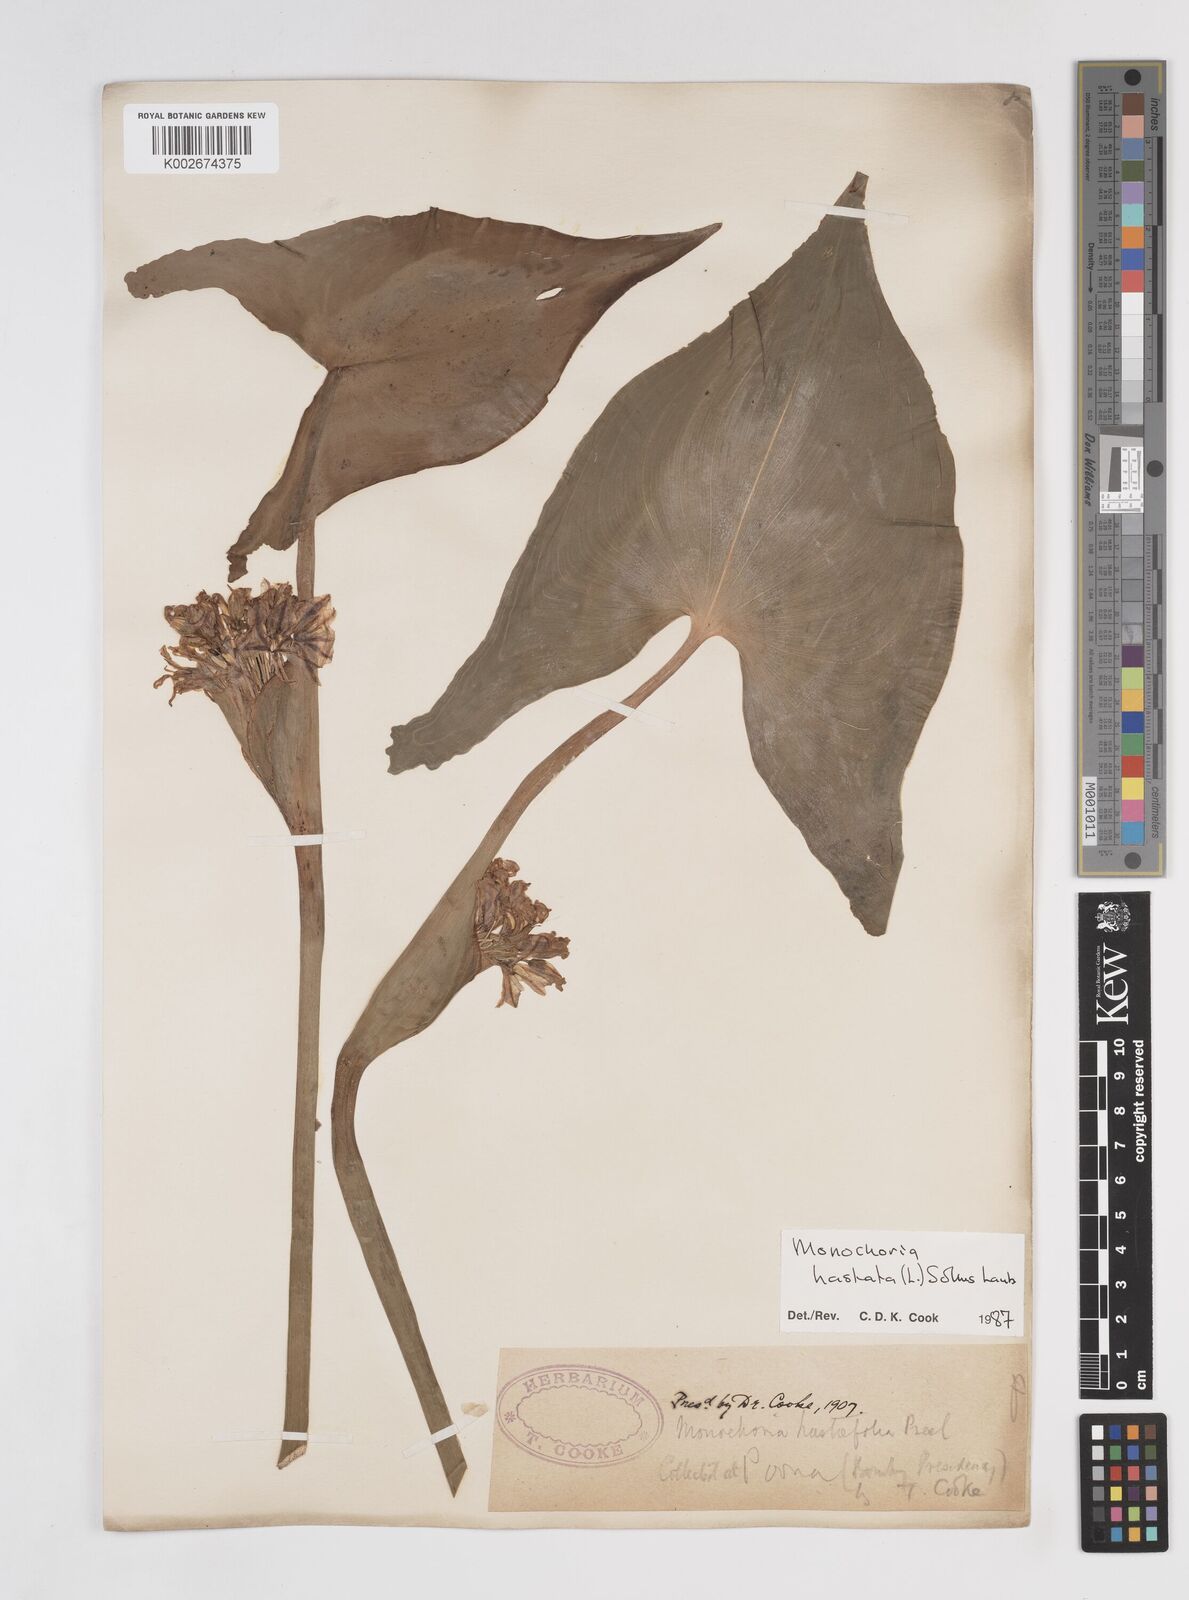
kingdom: Plantae
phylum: Tracheophyta
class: Liliopsida
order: Commelinales
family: Pontederiaceae
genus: Pontederia
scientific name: Pontederia hastata
